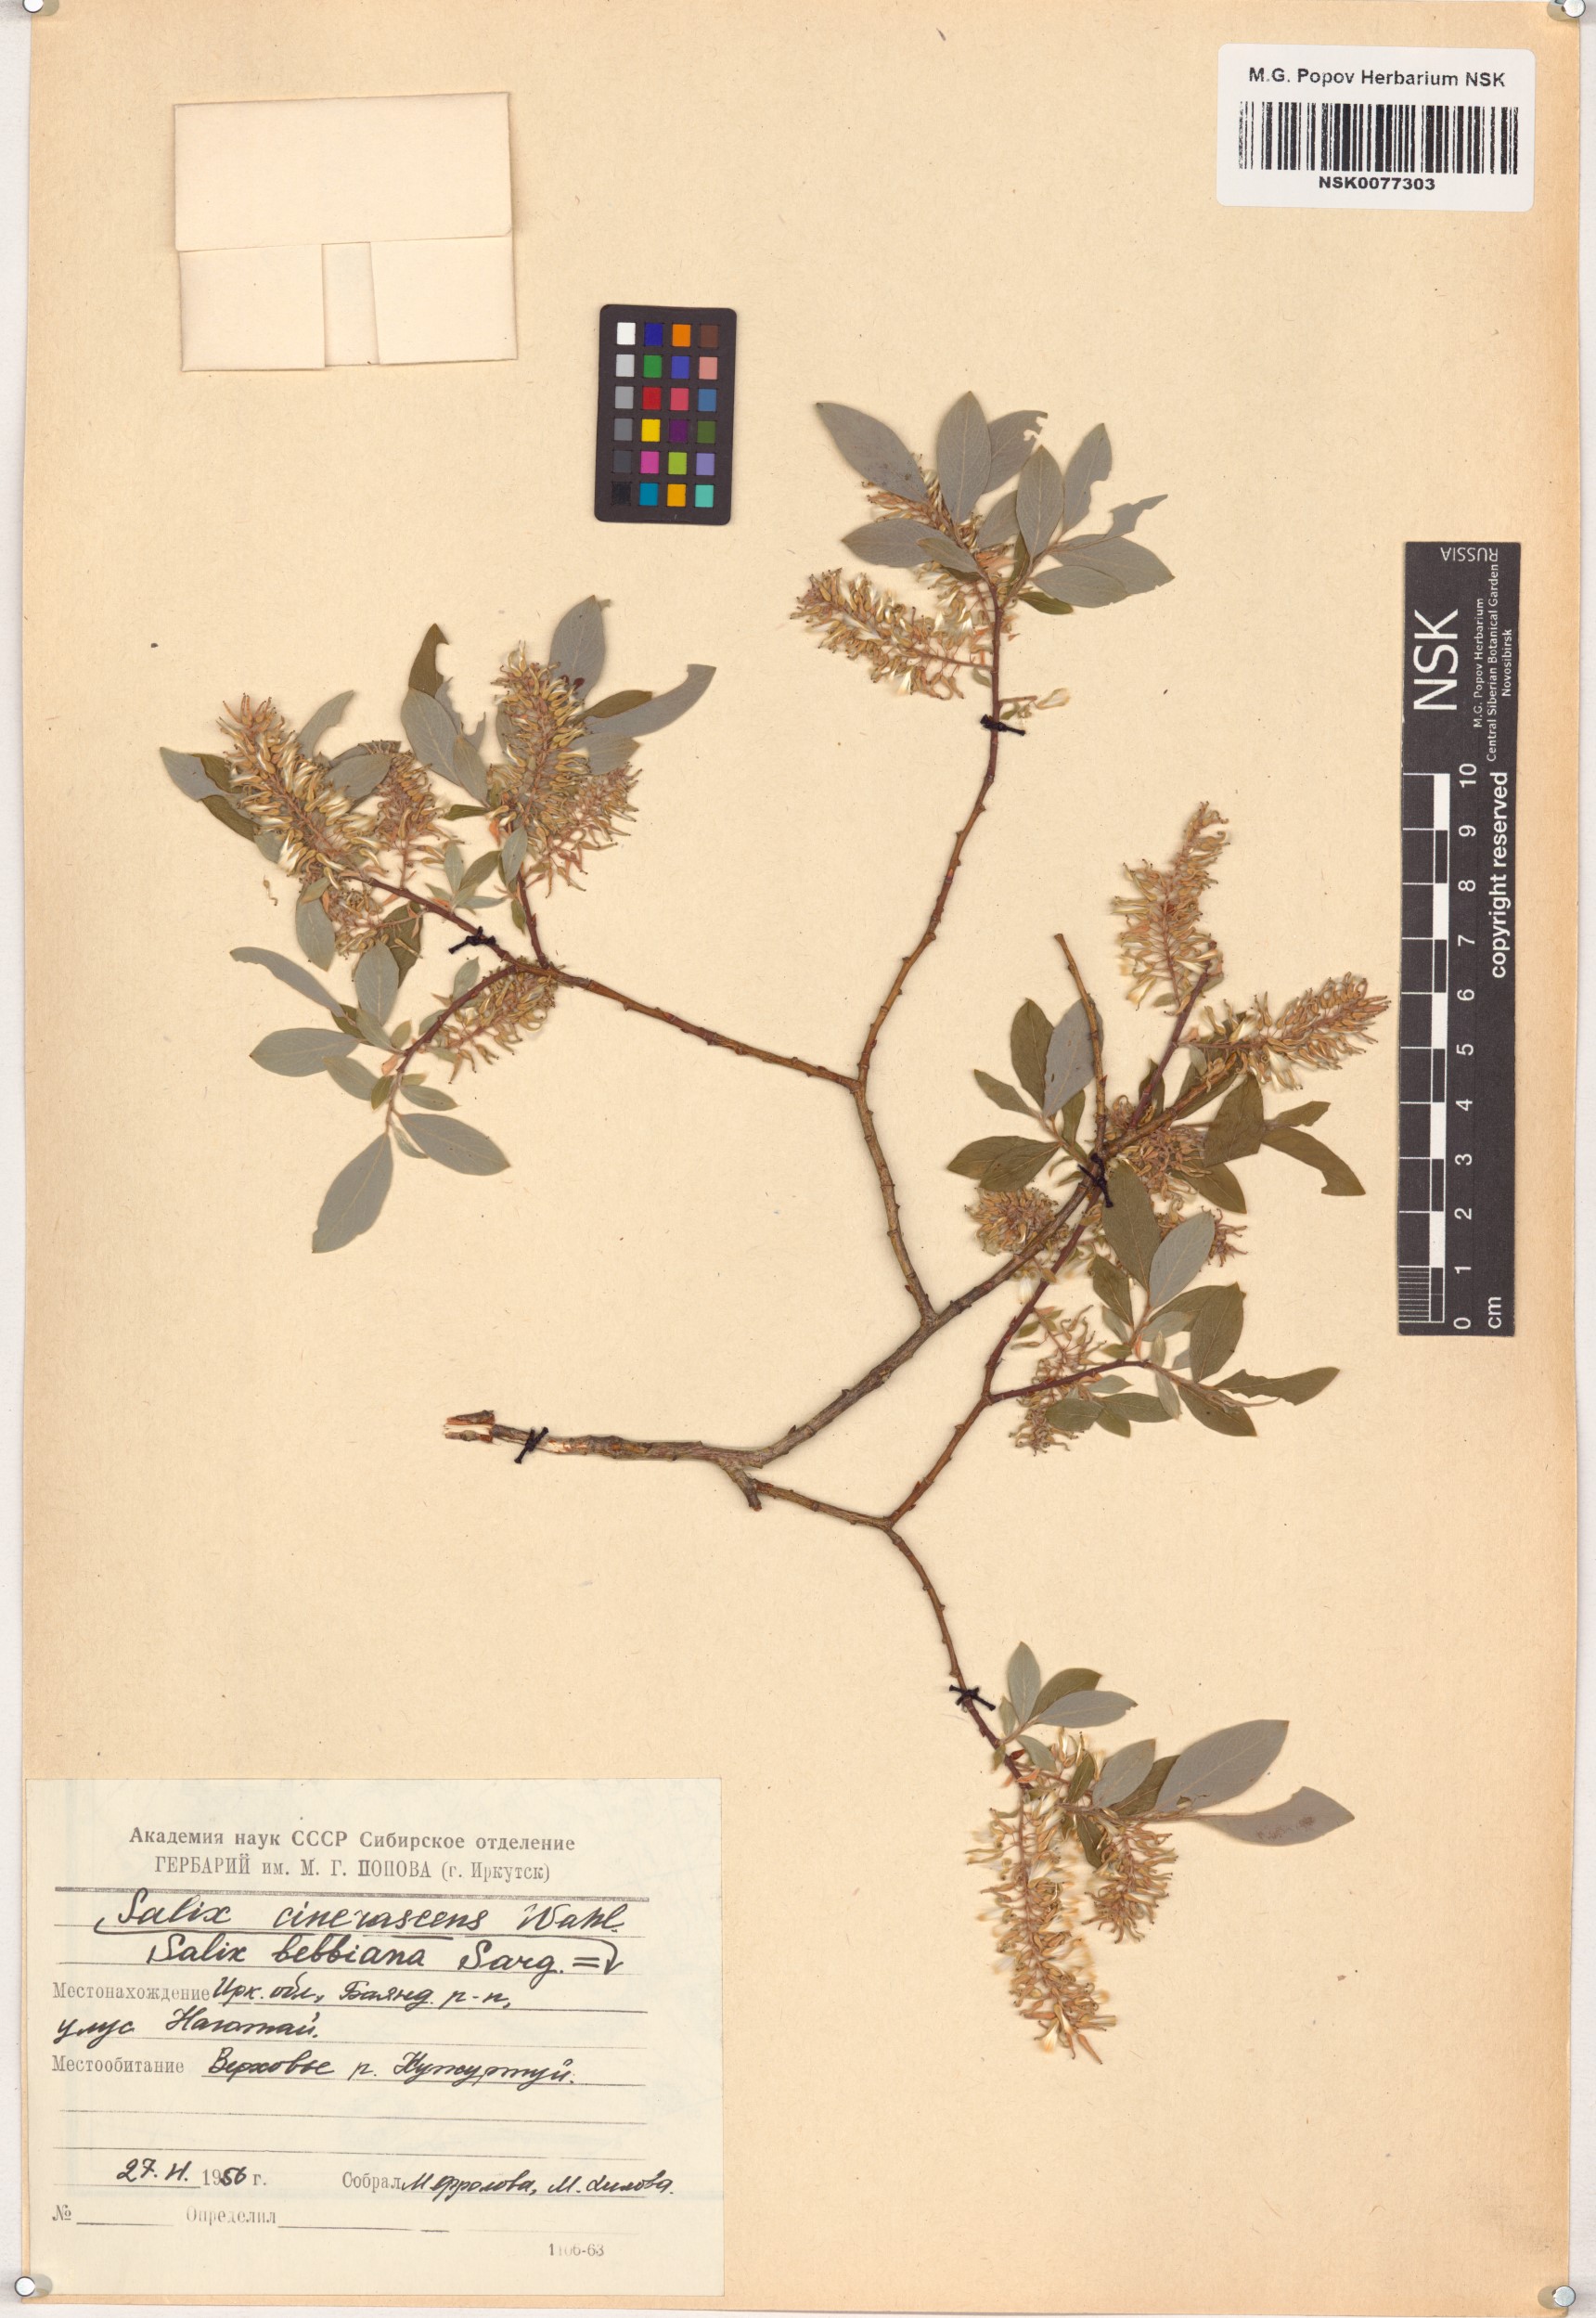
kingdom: Plantae
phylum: Tracheophyta
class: Magnoliopsida
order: Malpighiales
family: Salicaceae
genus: Salix
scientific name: Salix bebbiana
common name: Bebb's willow
